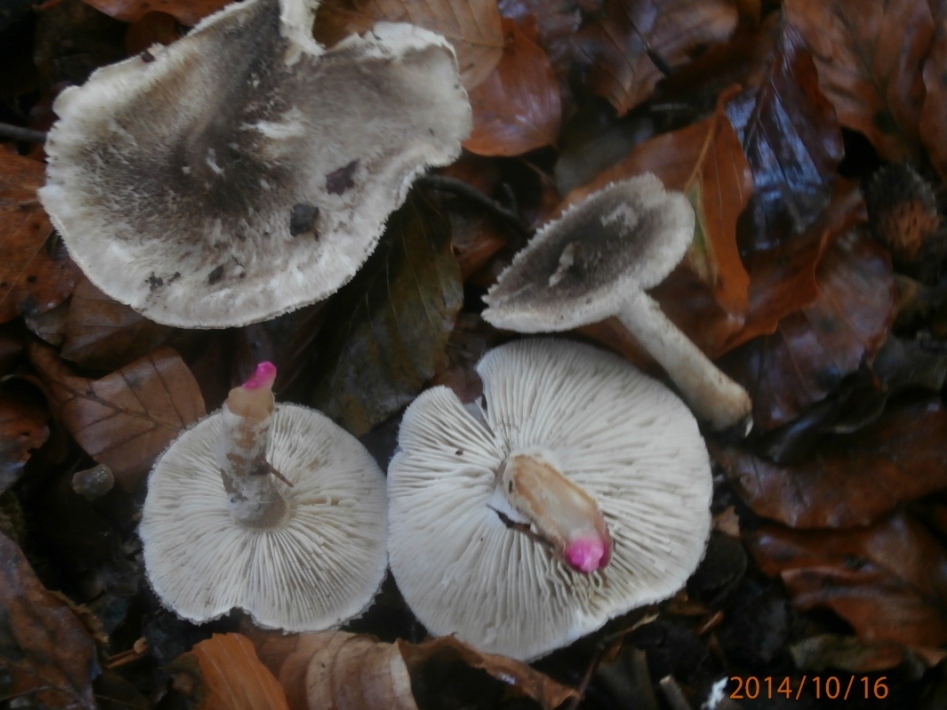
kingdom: Fungi
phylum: Basidiomycota
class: Agaricomycetes
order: Agaricales
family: Tricholomataceae
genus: Tricholoma
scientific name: Tricholoma orirubens
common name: rødbladet ridderhat
